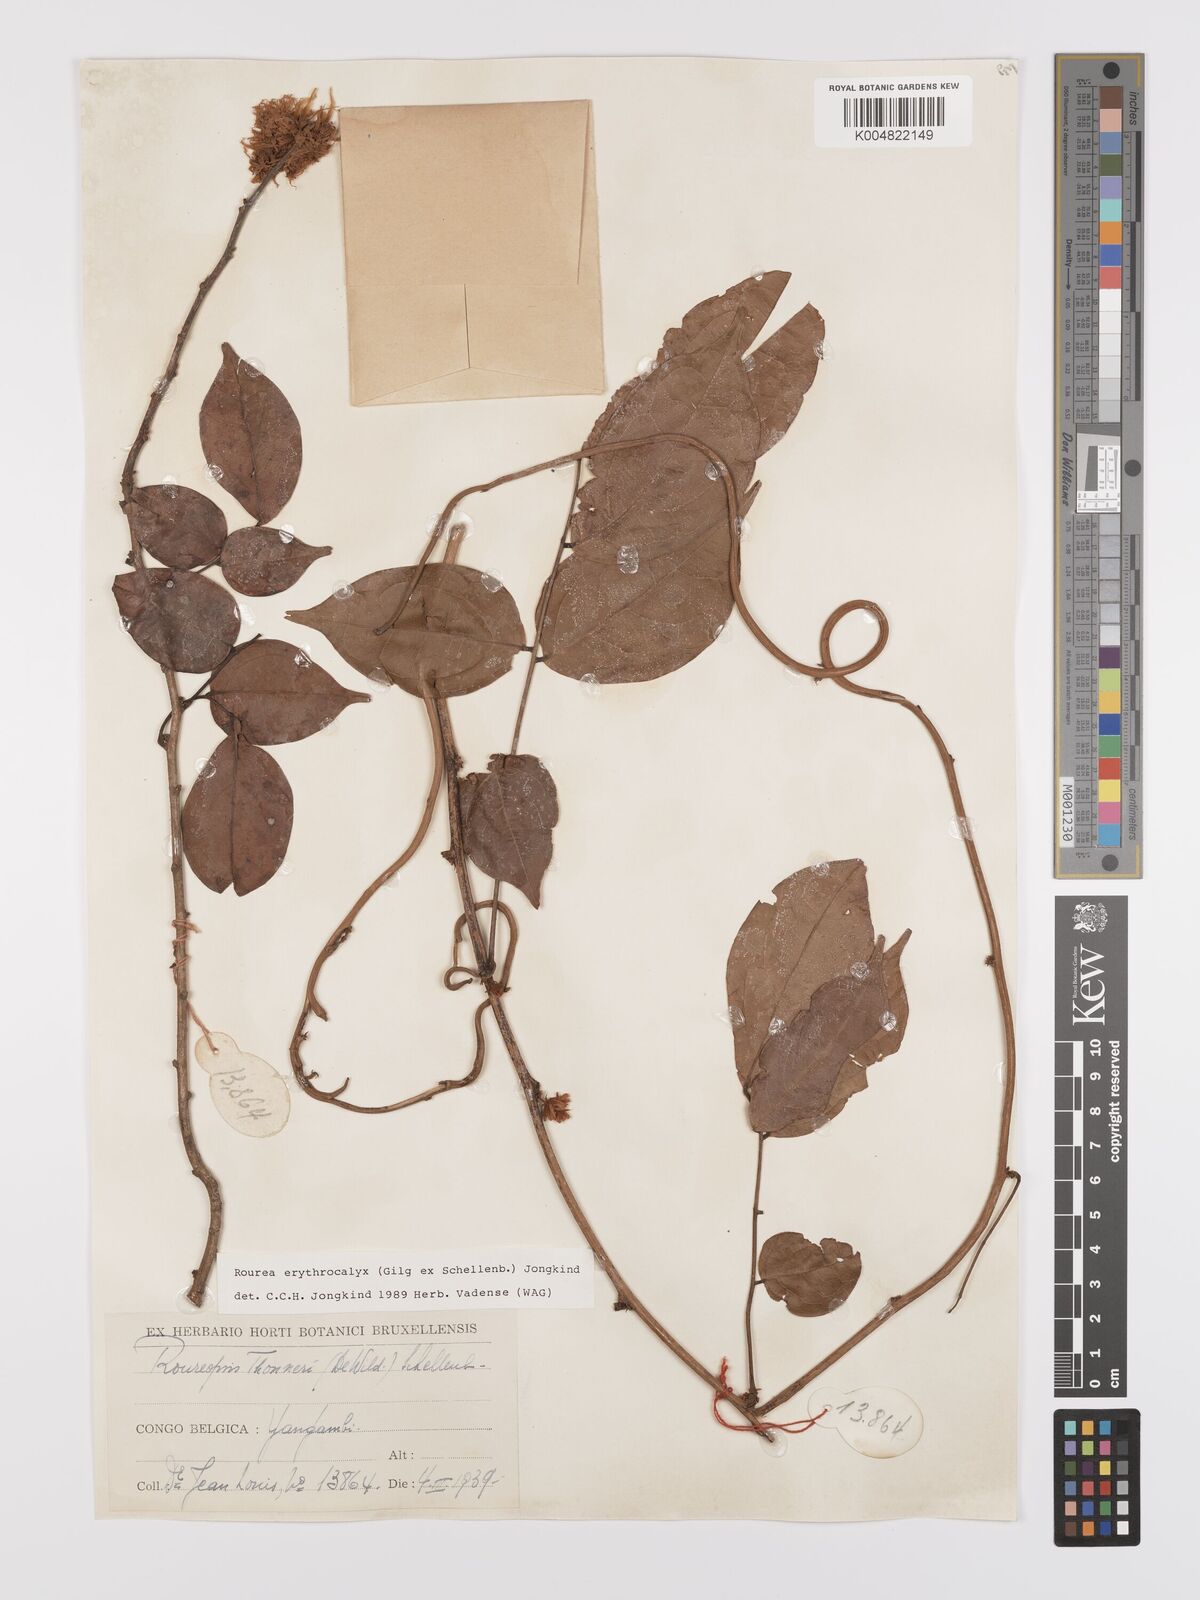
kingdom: Plantae
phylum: Tracheophyta
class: Magnoliopsida
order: Oxalidales
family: Connaraceae
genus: Rourea
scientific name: Rourea erythrocalyx
